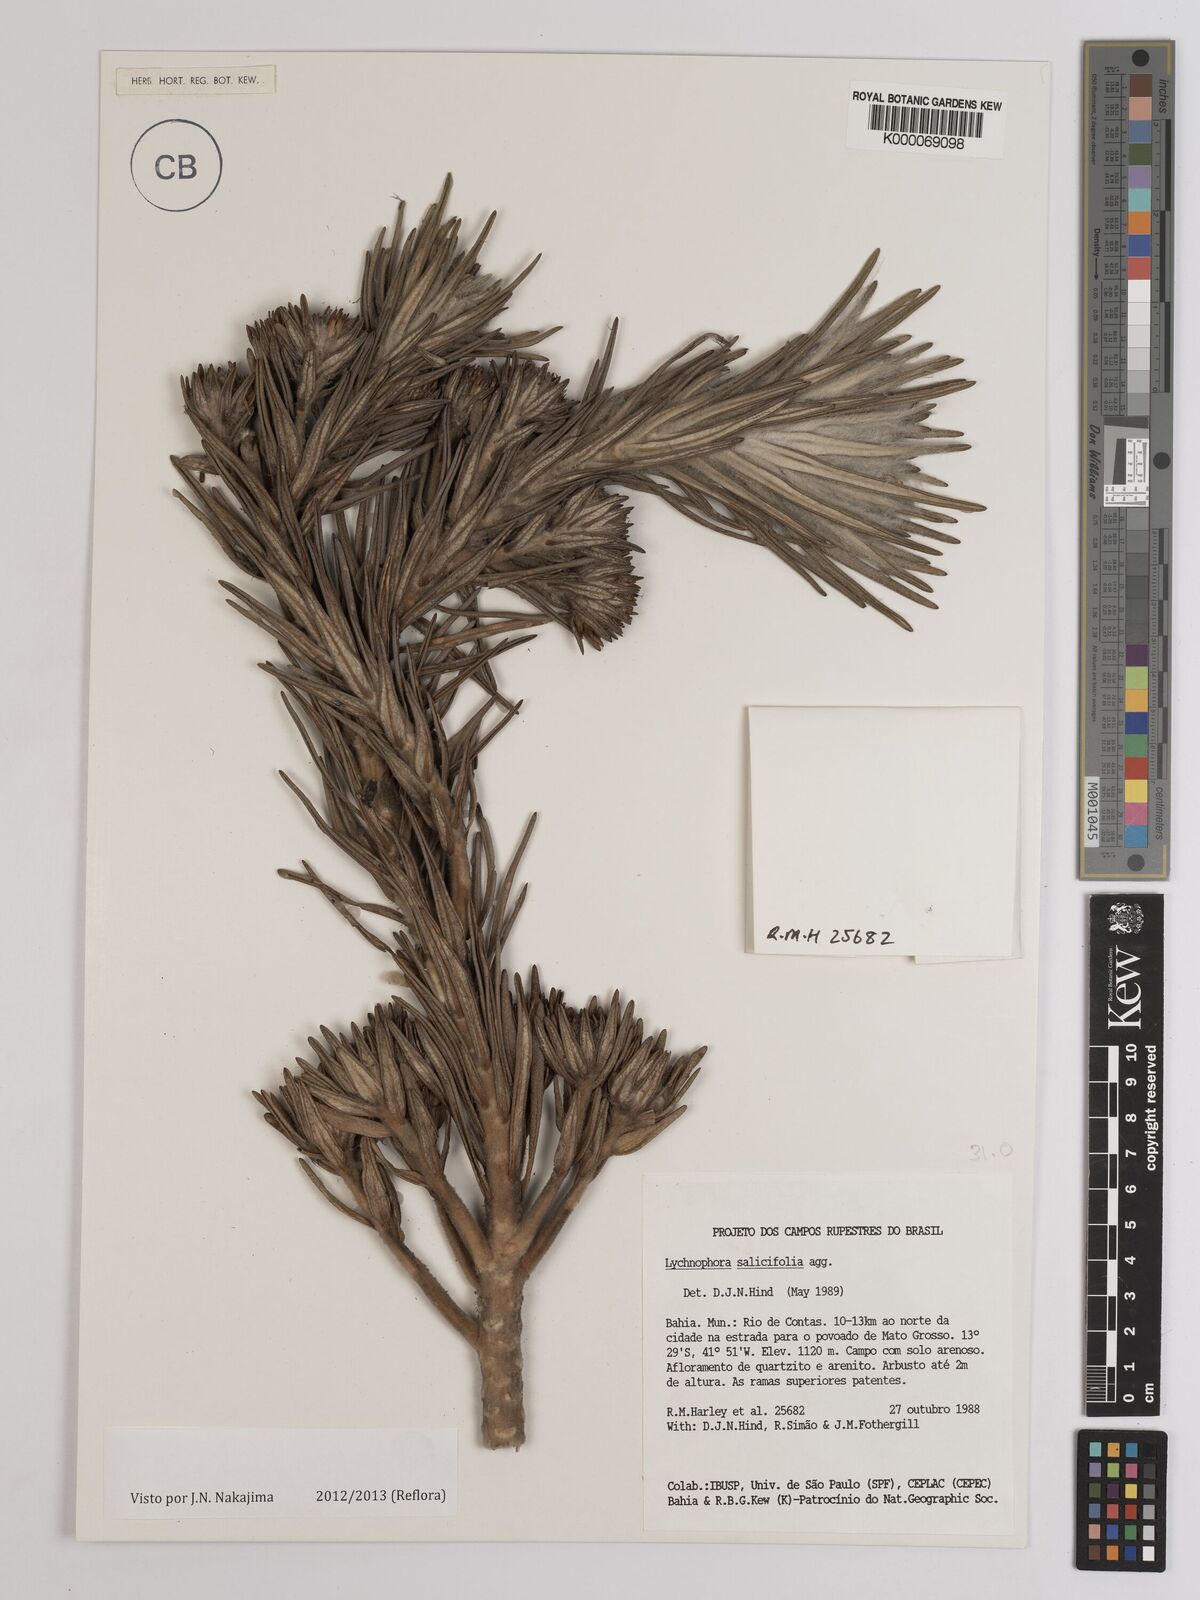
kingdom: Plantae
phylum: Tracheophyta
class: Magnoliopsida
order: Asterales
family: Asteraceae
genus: Lychnophora
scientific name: Lychnophora salicifolia
